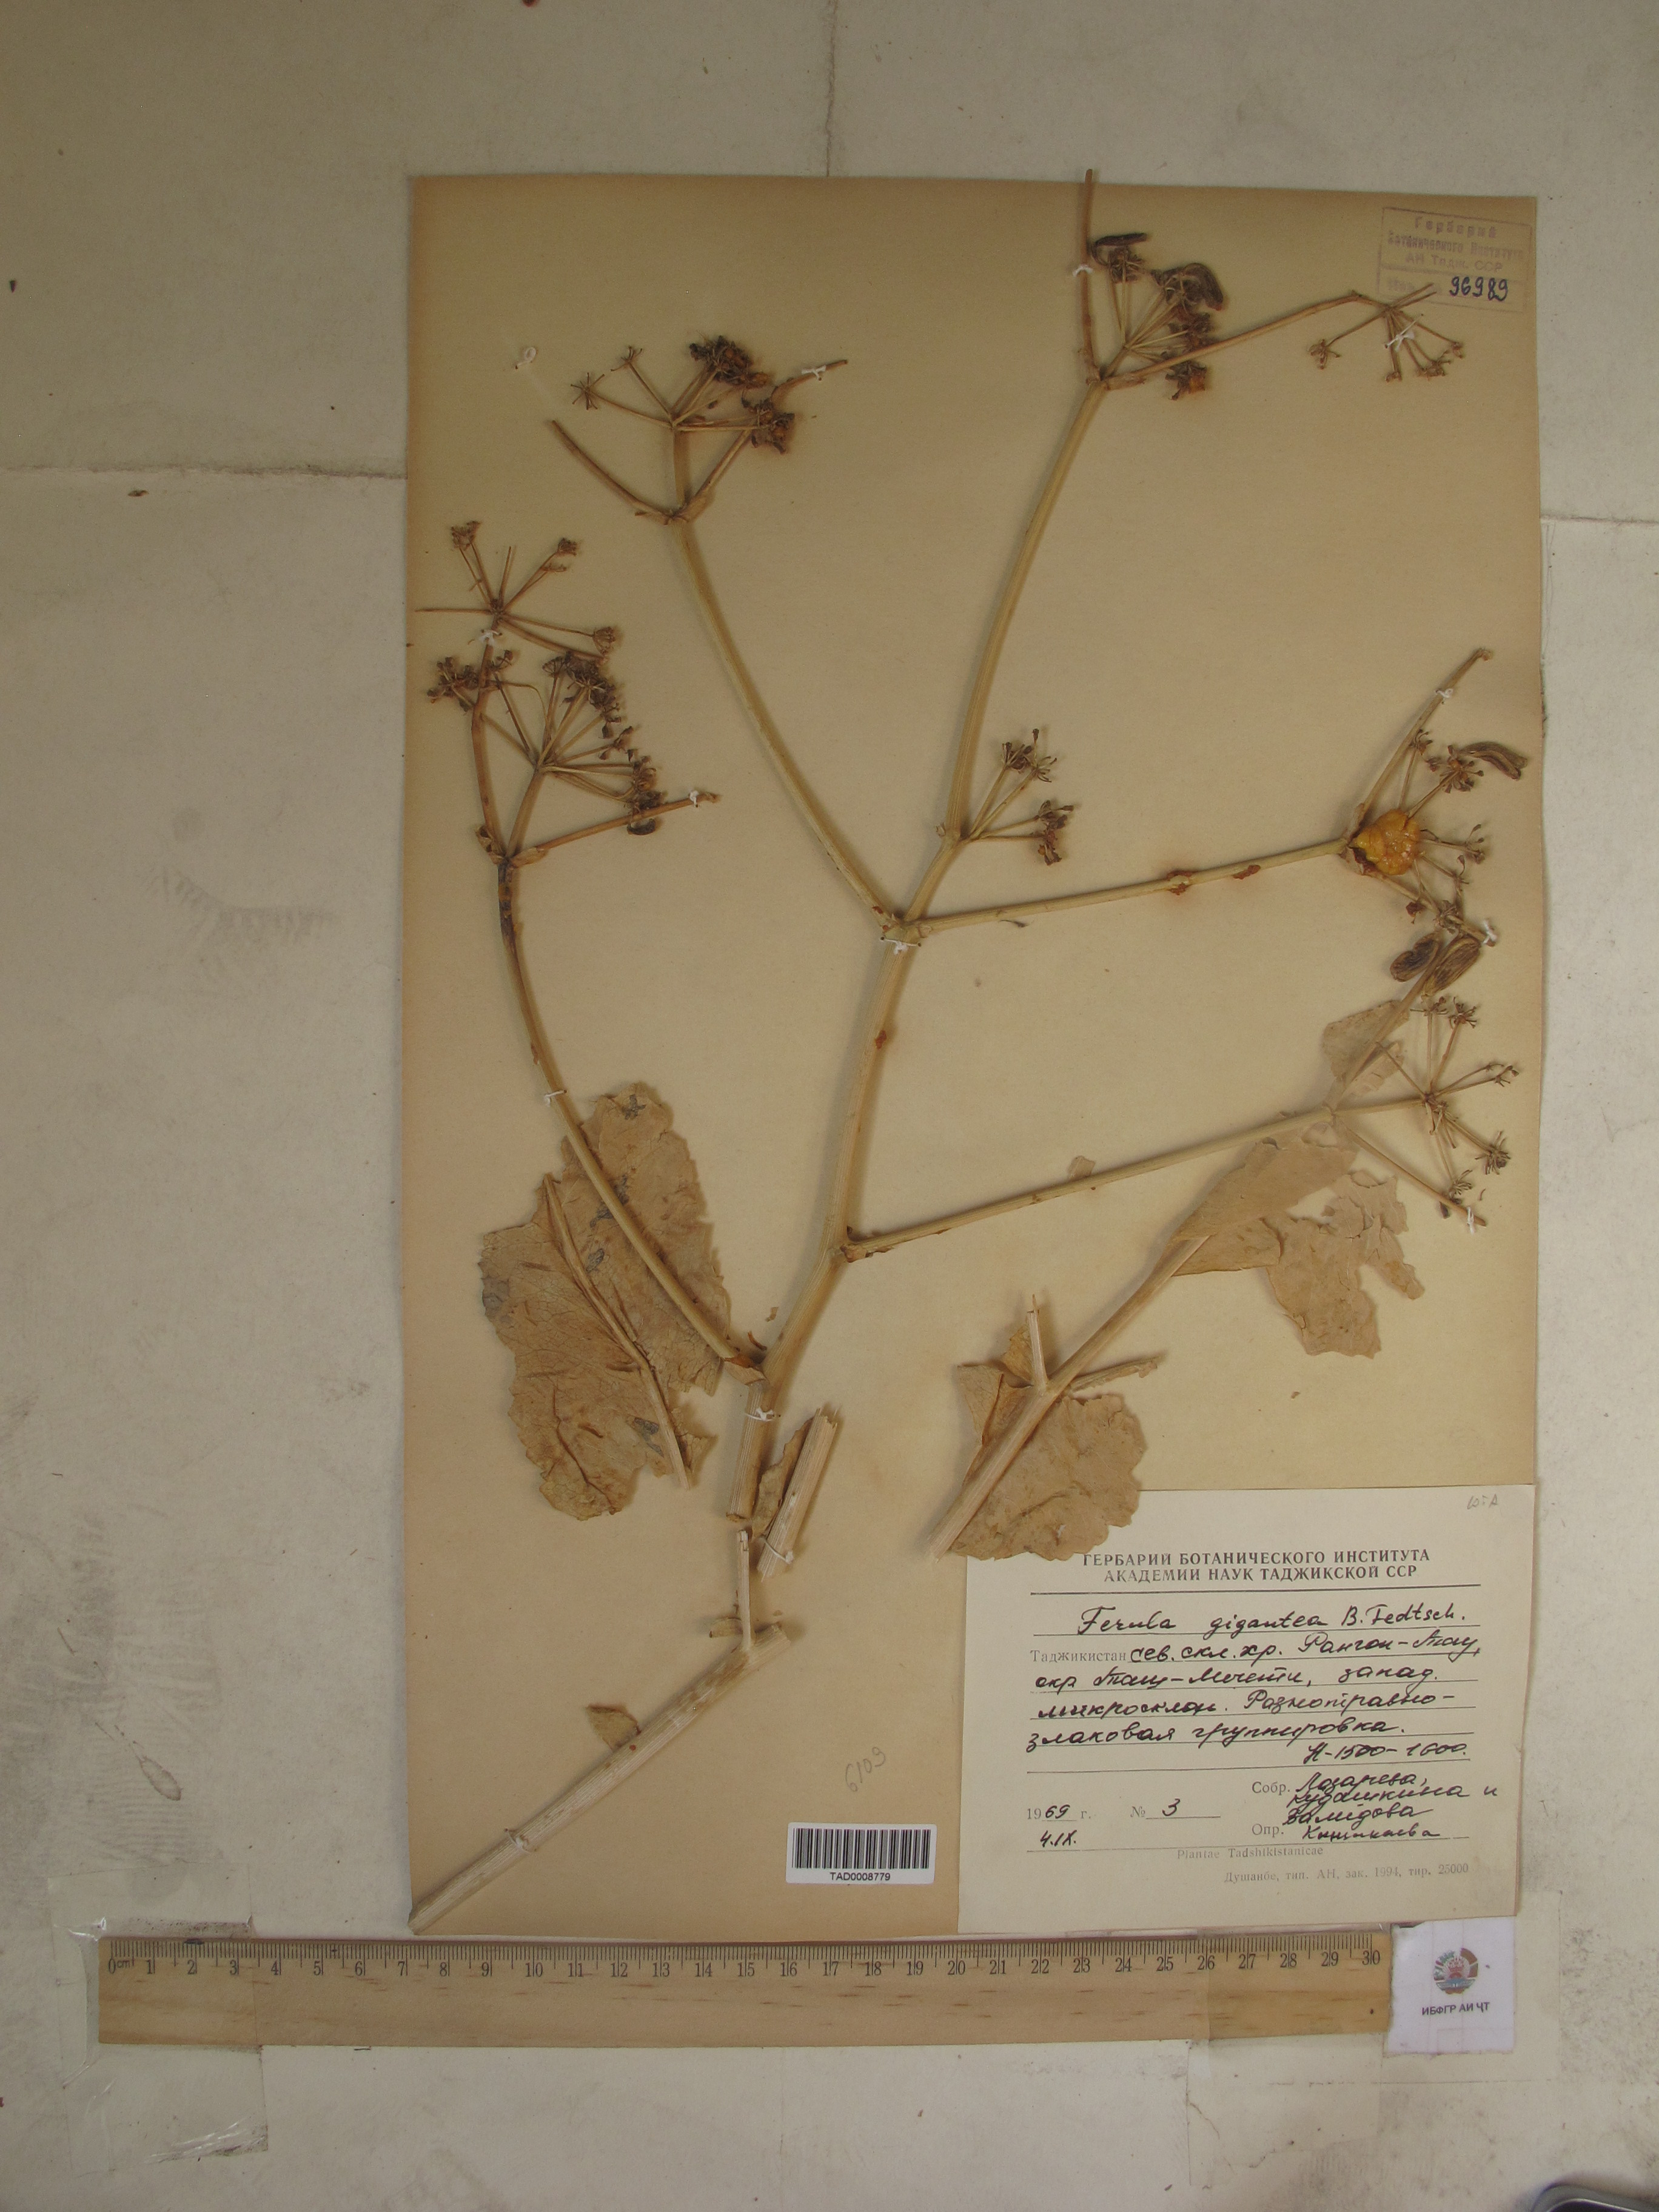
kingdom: Plantae
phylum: Tracheophyta
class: Magnoliopsida
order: Apiales
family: Apiaceae
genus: Ferula
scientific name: Ferula gigantea
